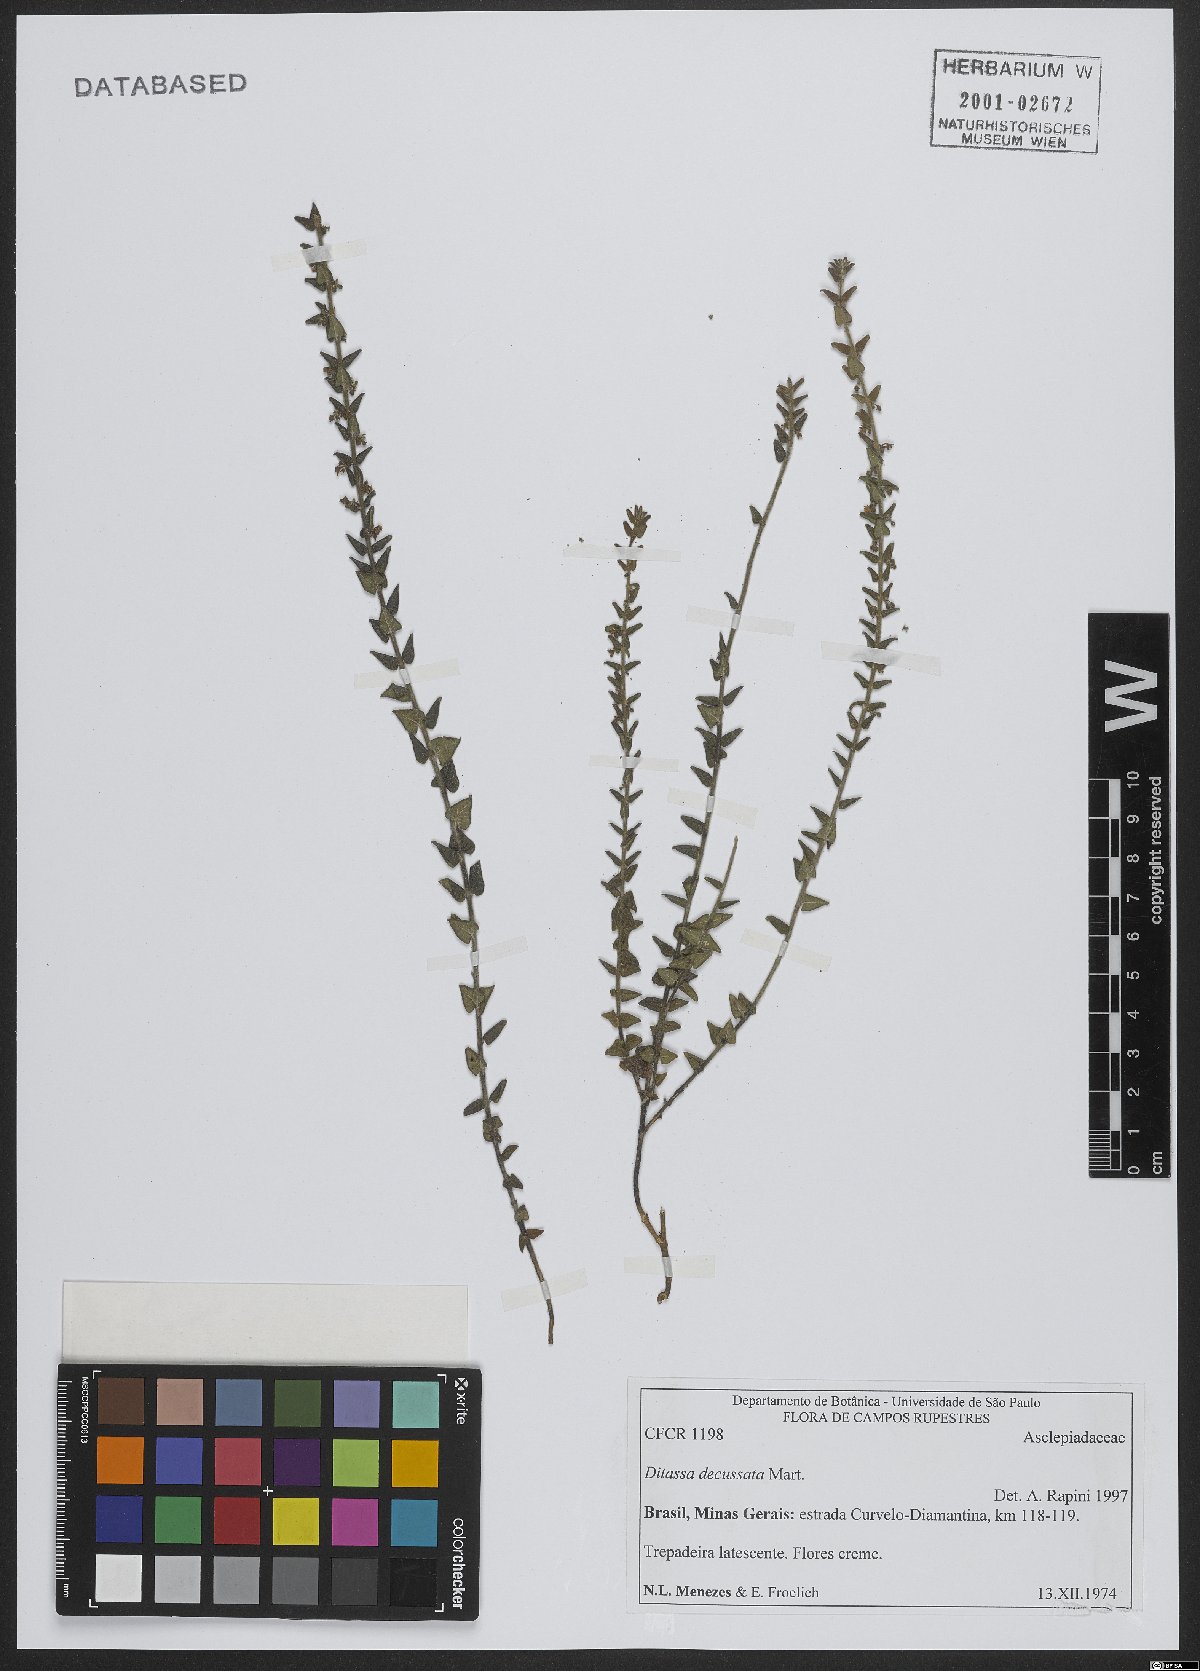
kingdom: Plantae
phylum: Tracheophyta
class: Magnoliopsida
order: Gentianales
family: Apocynaceae
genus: Minaria
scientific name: Minaria decussata
